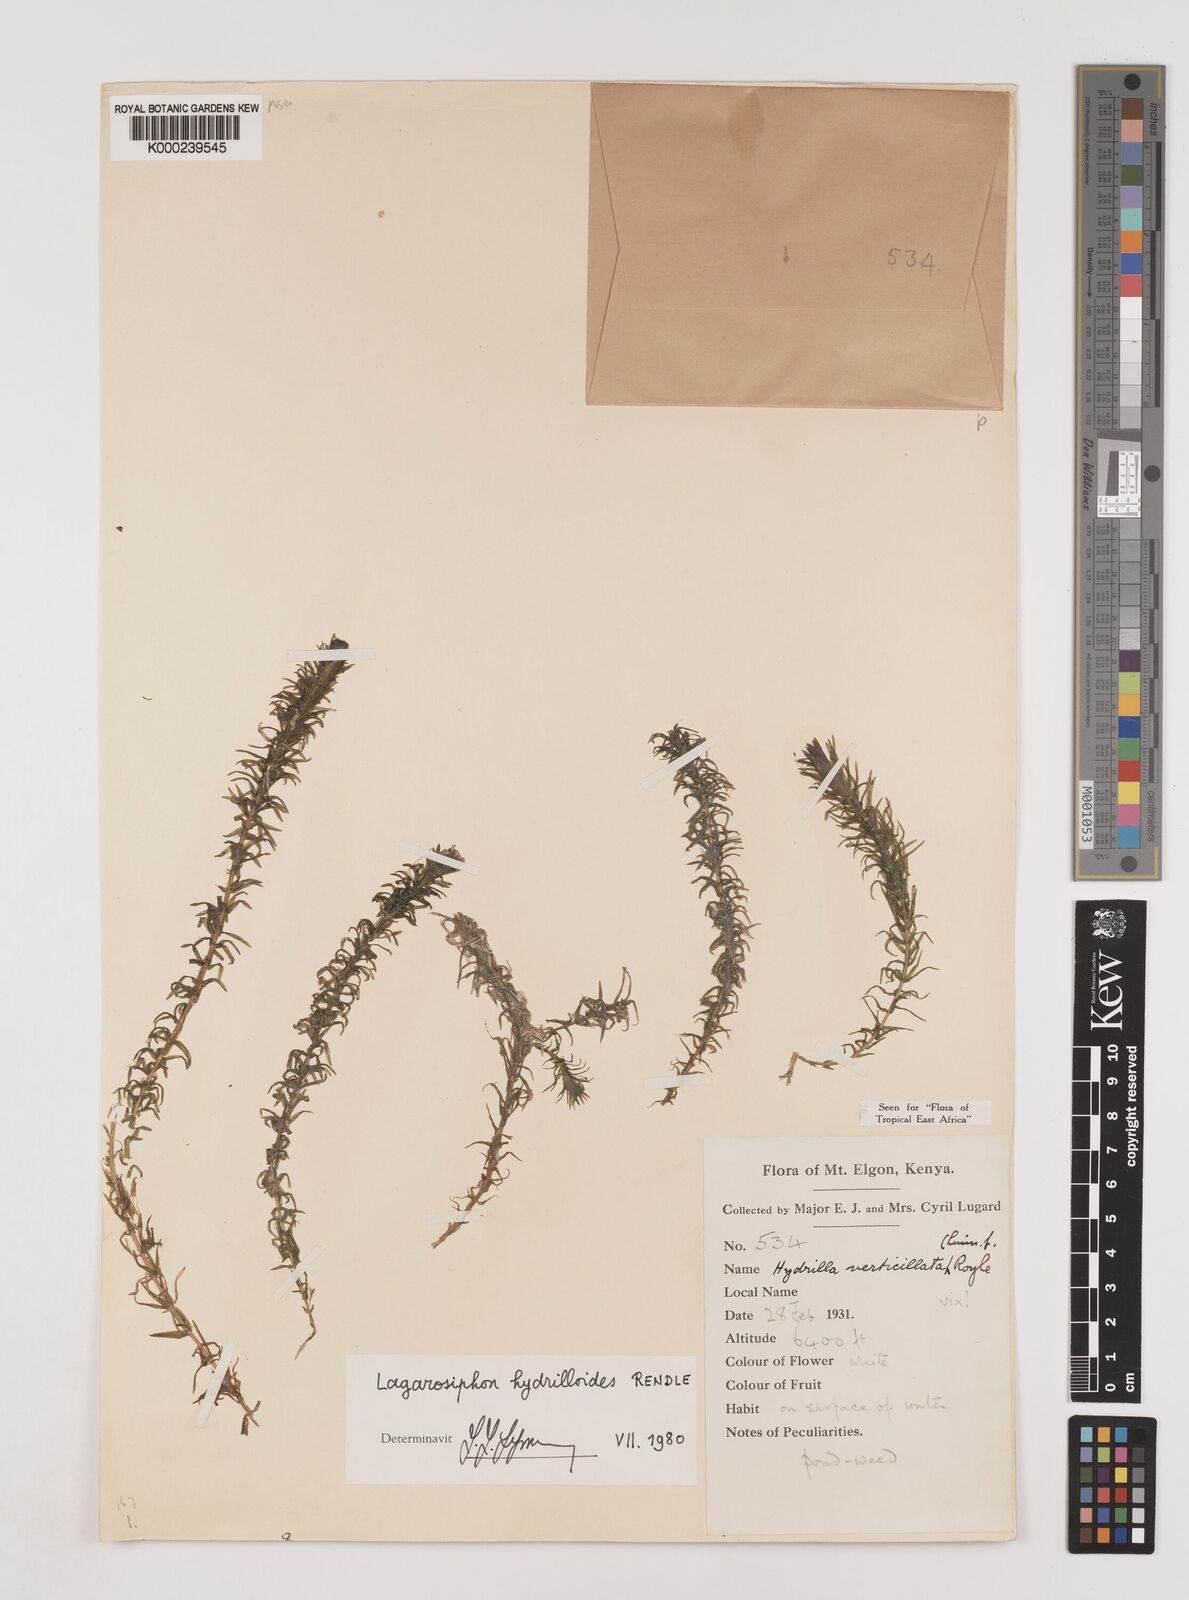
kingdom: Plantae
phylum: Tracheophyta
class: Liliopsida
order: Alismatales
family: Hydrocharitaceae
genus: Lagarosiphon
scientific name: Lagarosiphon hydrilloides
